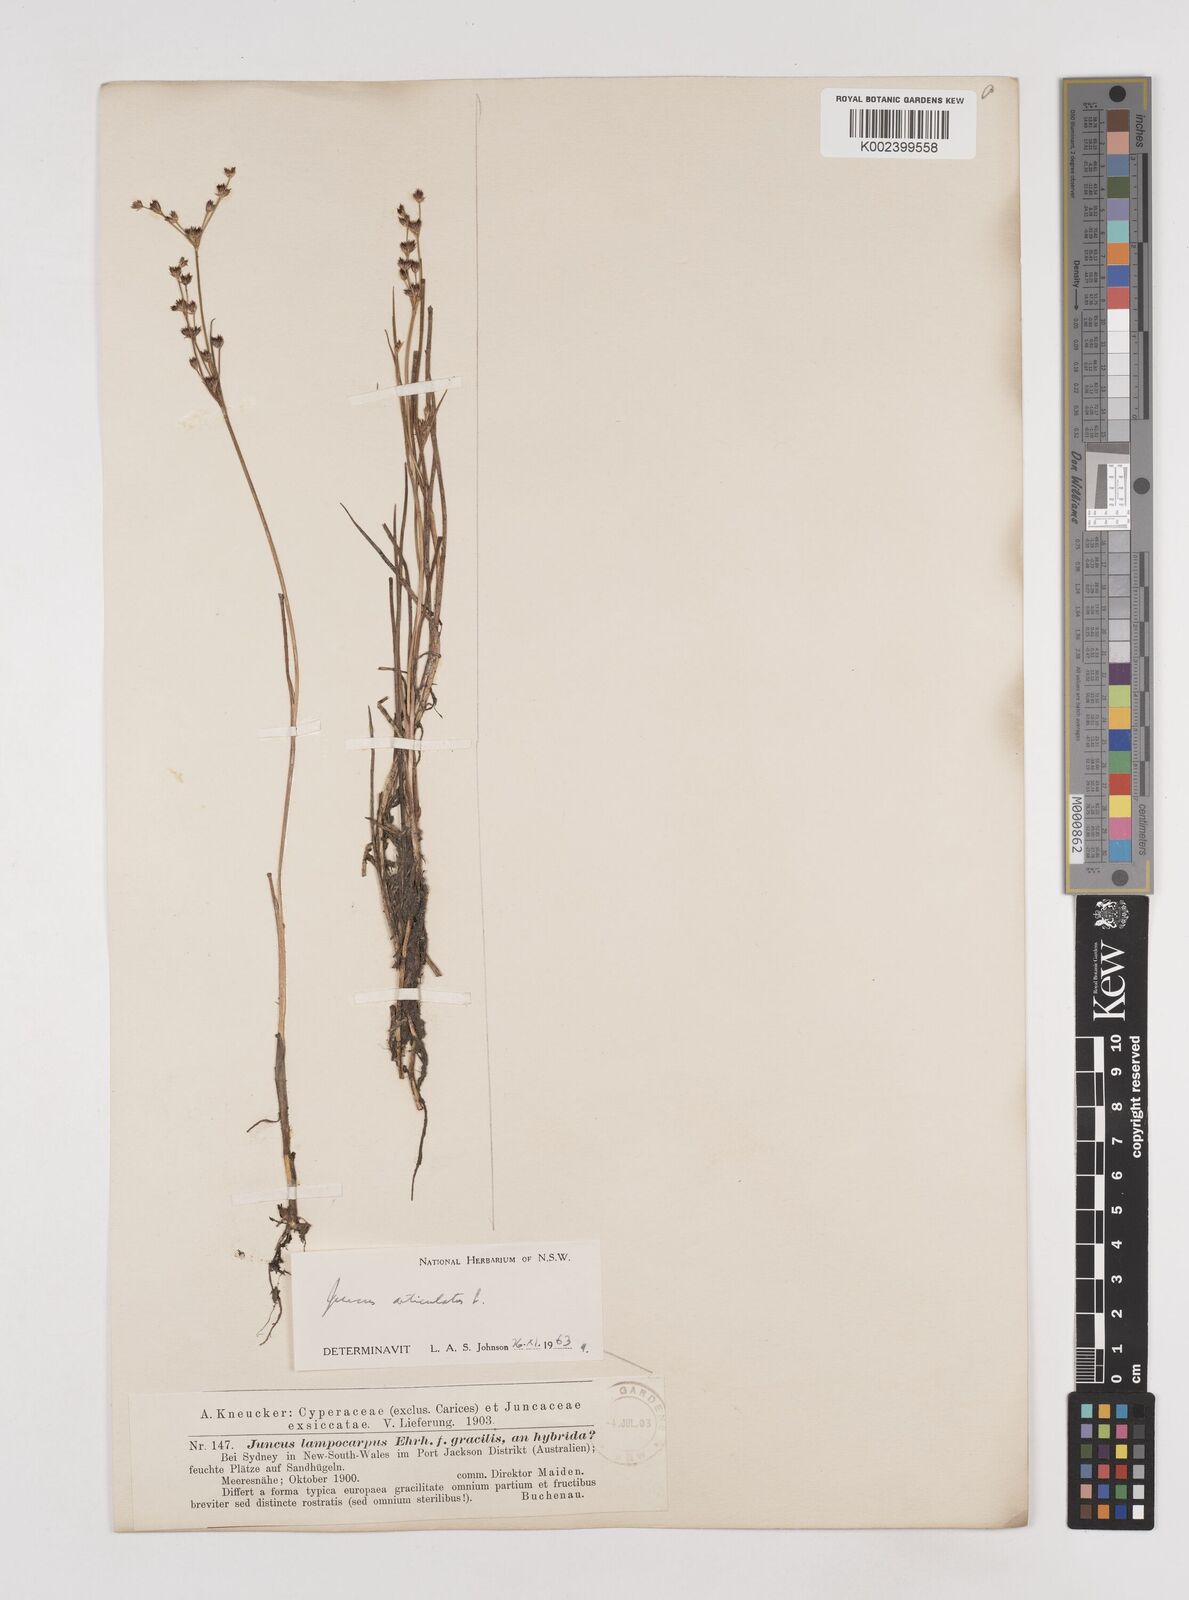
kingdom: Plantae
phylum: Tracheophyta
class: Liliopsida
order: Poales
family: Juncaceae
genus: Juncus
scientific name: Juncus articulatus
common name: Jointed rush
